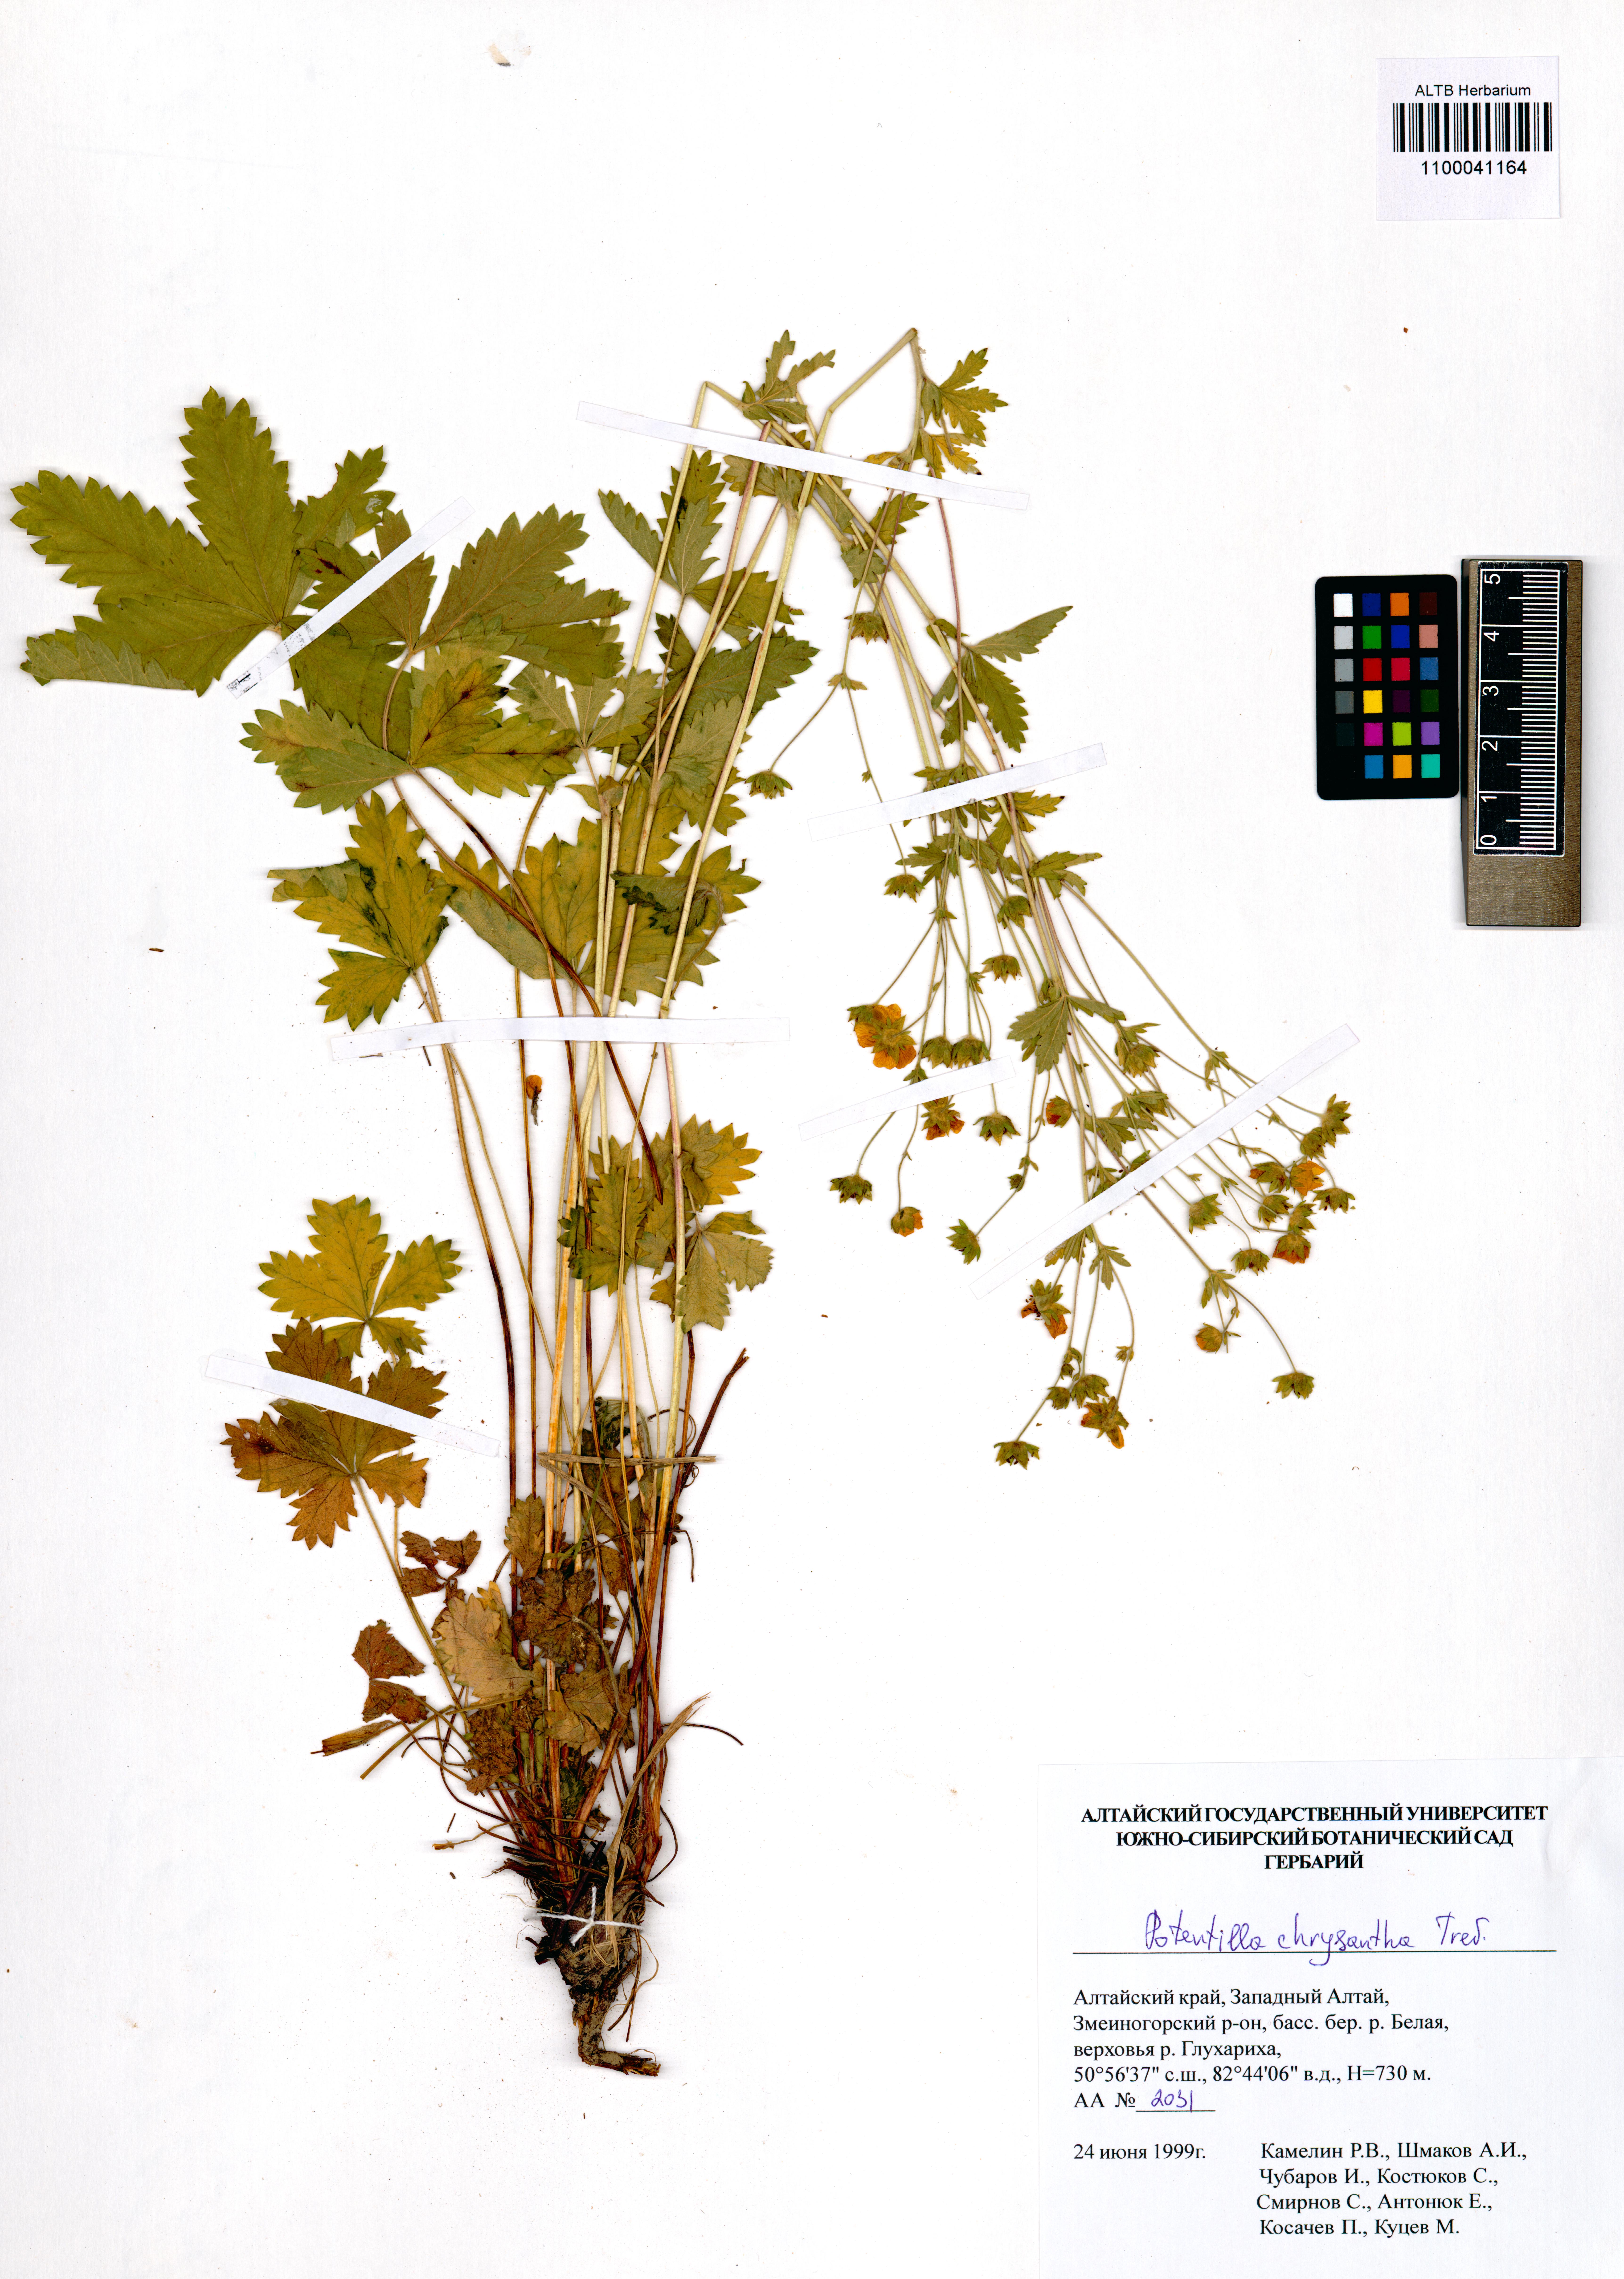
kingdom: Plantae
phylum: Tracheophyta
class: Magnoliopsida
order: Rosales
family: Rosaceae
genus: Potentilla
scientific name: Potentilla chrysantha
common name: Thuringian cinquefoil
